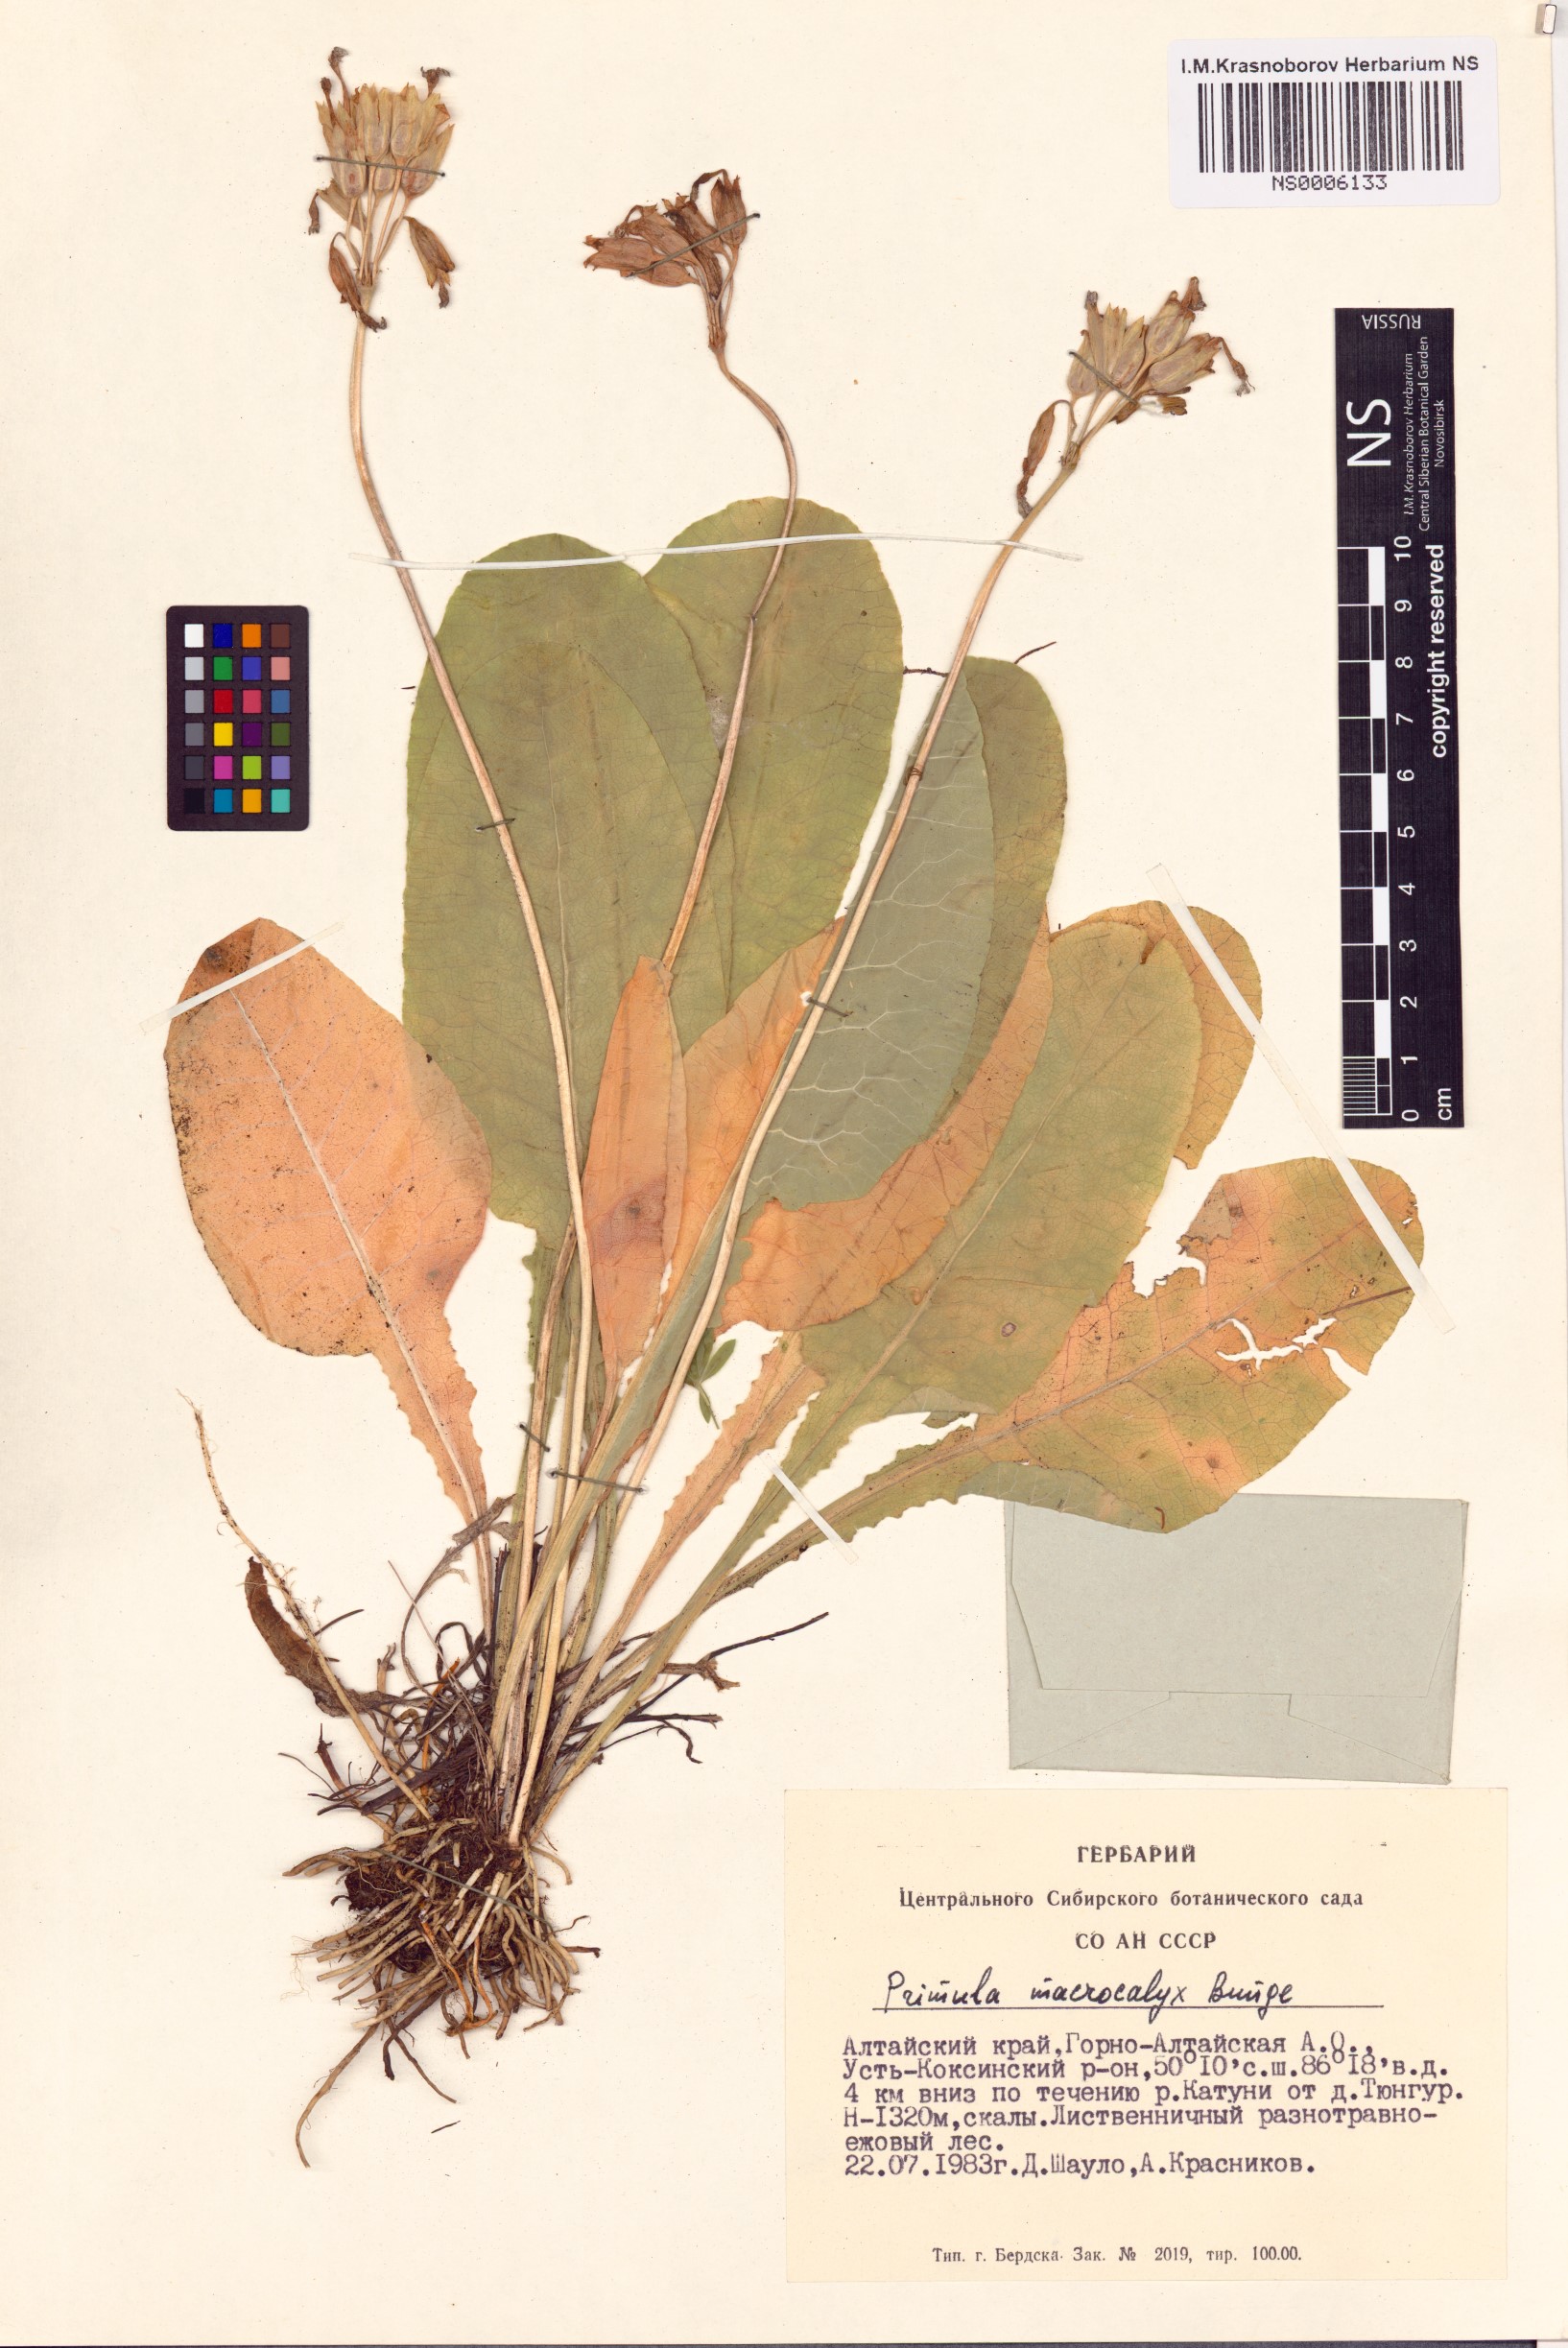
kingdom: Plantae
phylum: Tracheophyta
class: Magnoliopsida
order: Ericales
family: Primulaceae
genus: Primula
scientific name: Primula veris
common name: Cowslip
